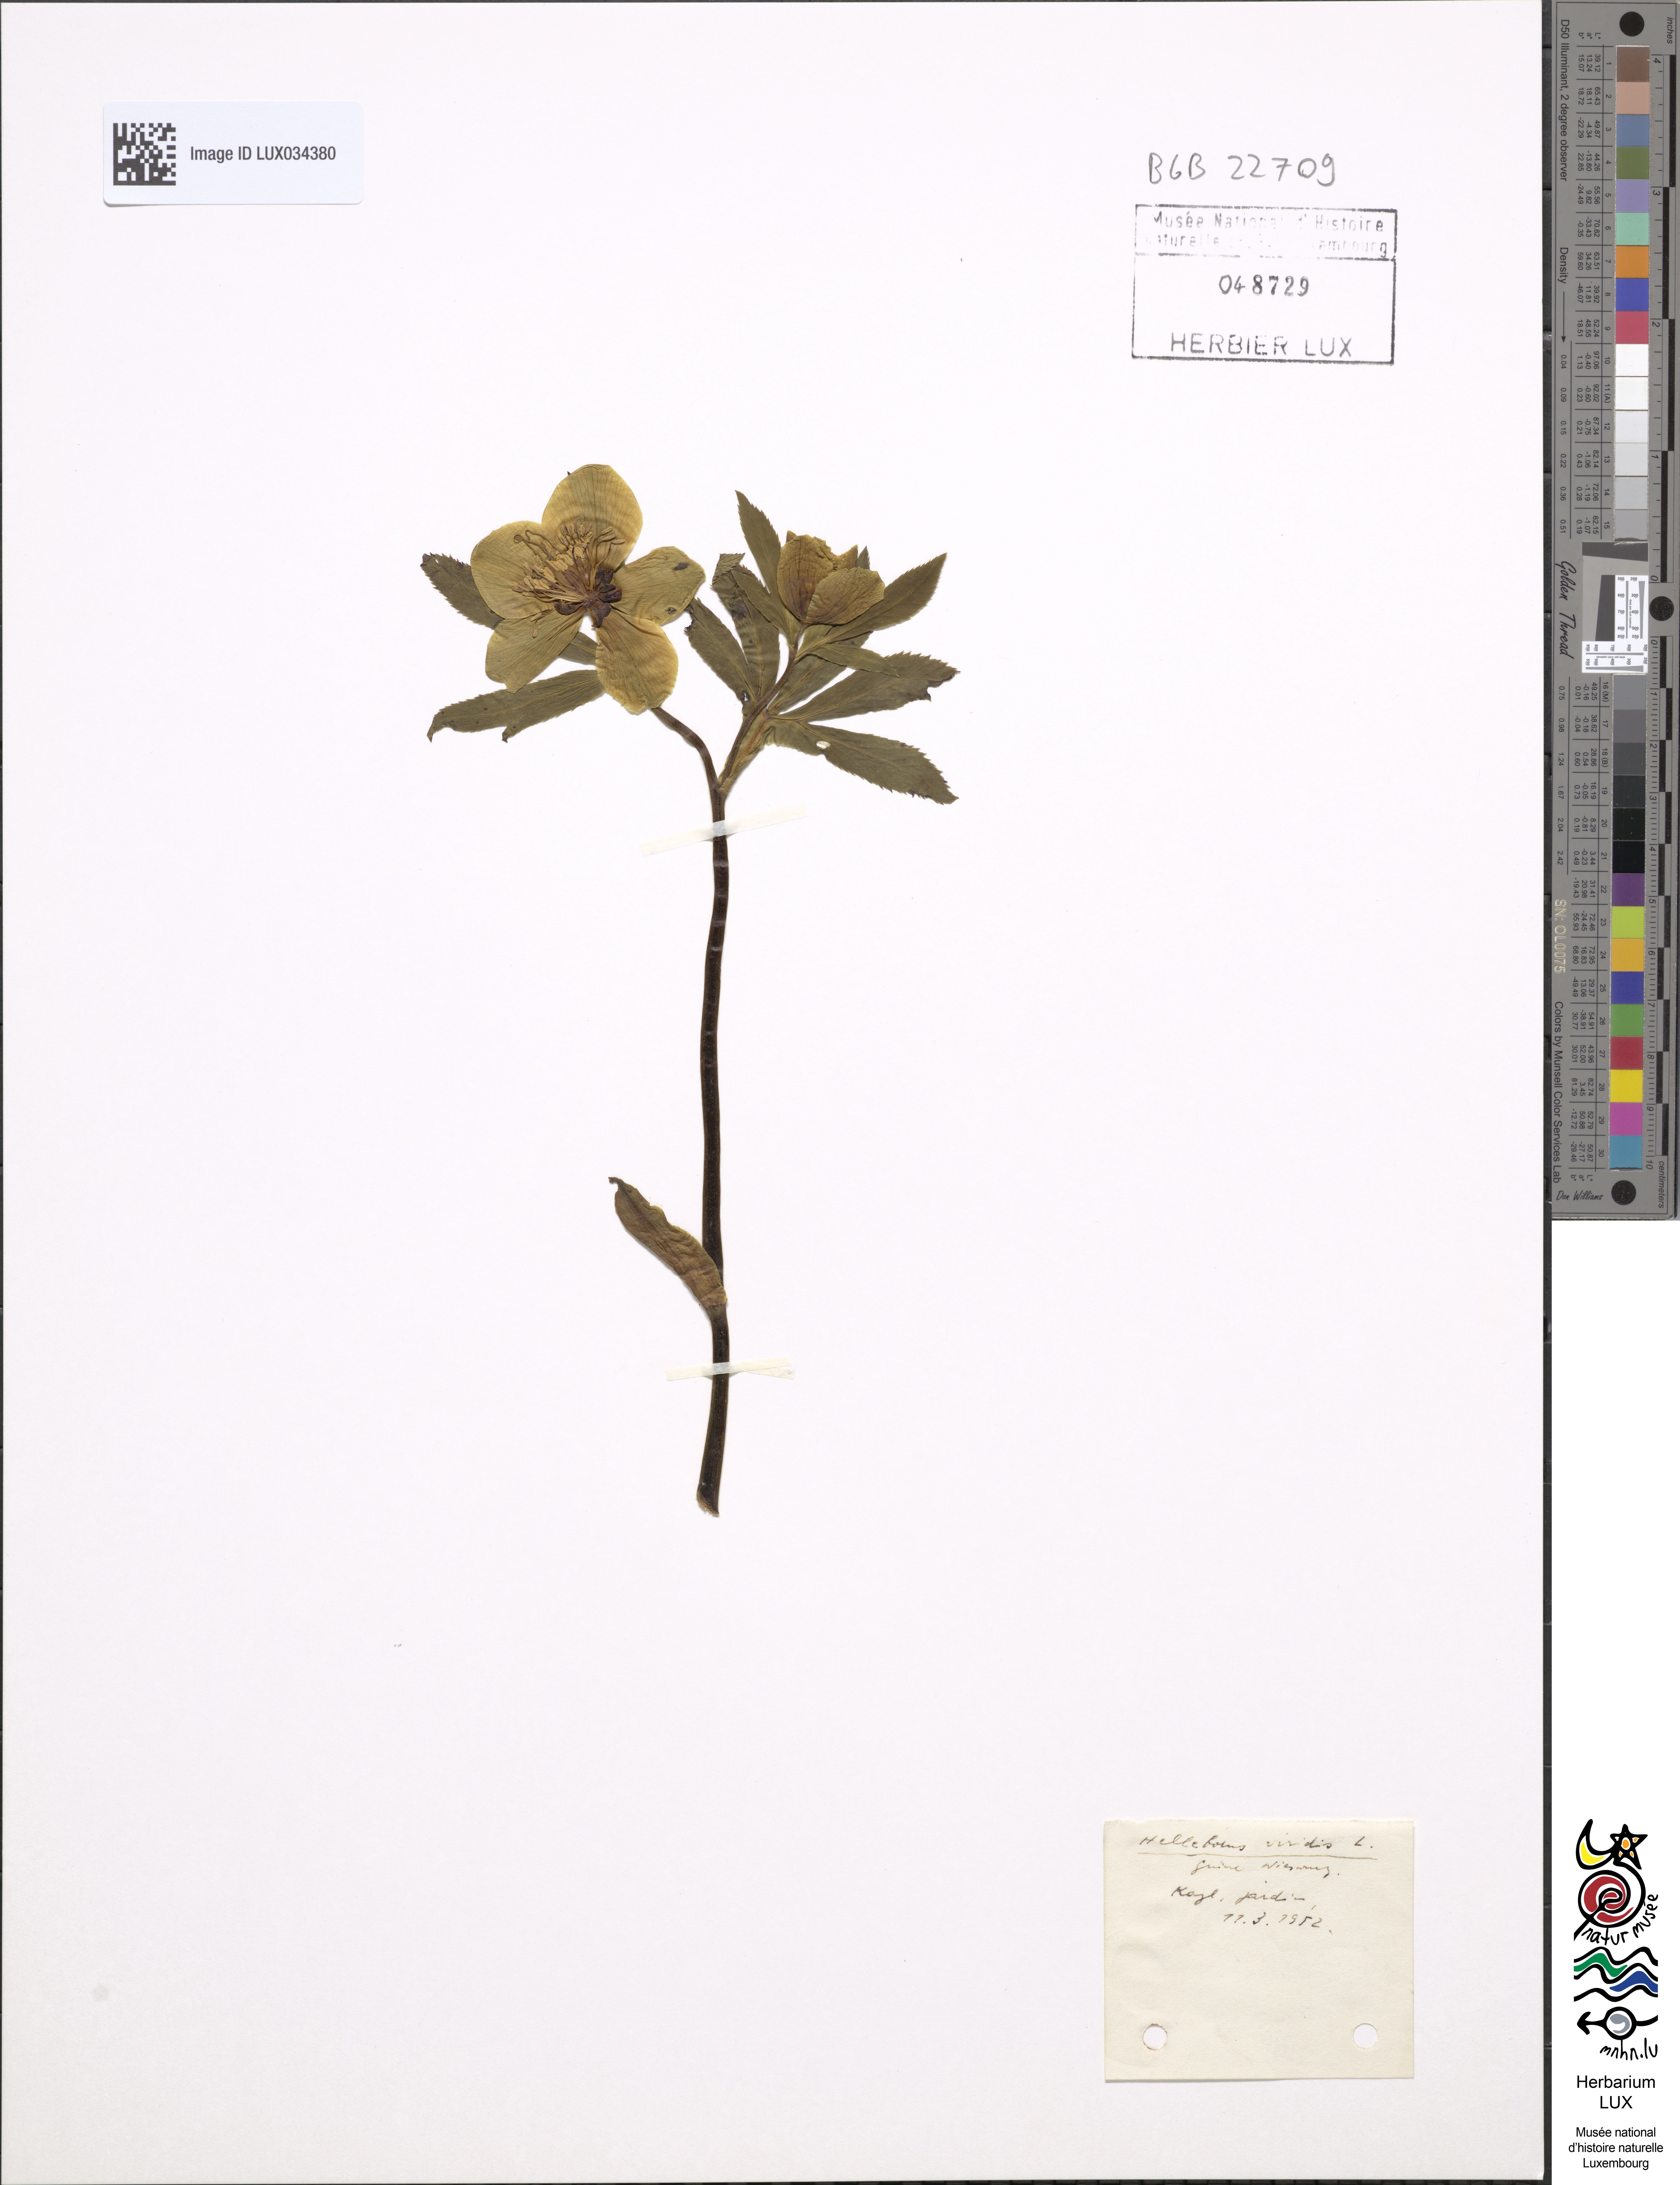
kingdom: Plantae
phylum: Tracheophyta
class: Magnoliopsida
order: Ranunculales
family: Ranunculaceae
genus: Helleborus
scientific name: Helleborus viridis
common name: Green hellebore
